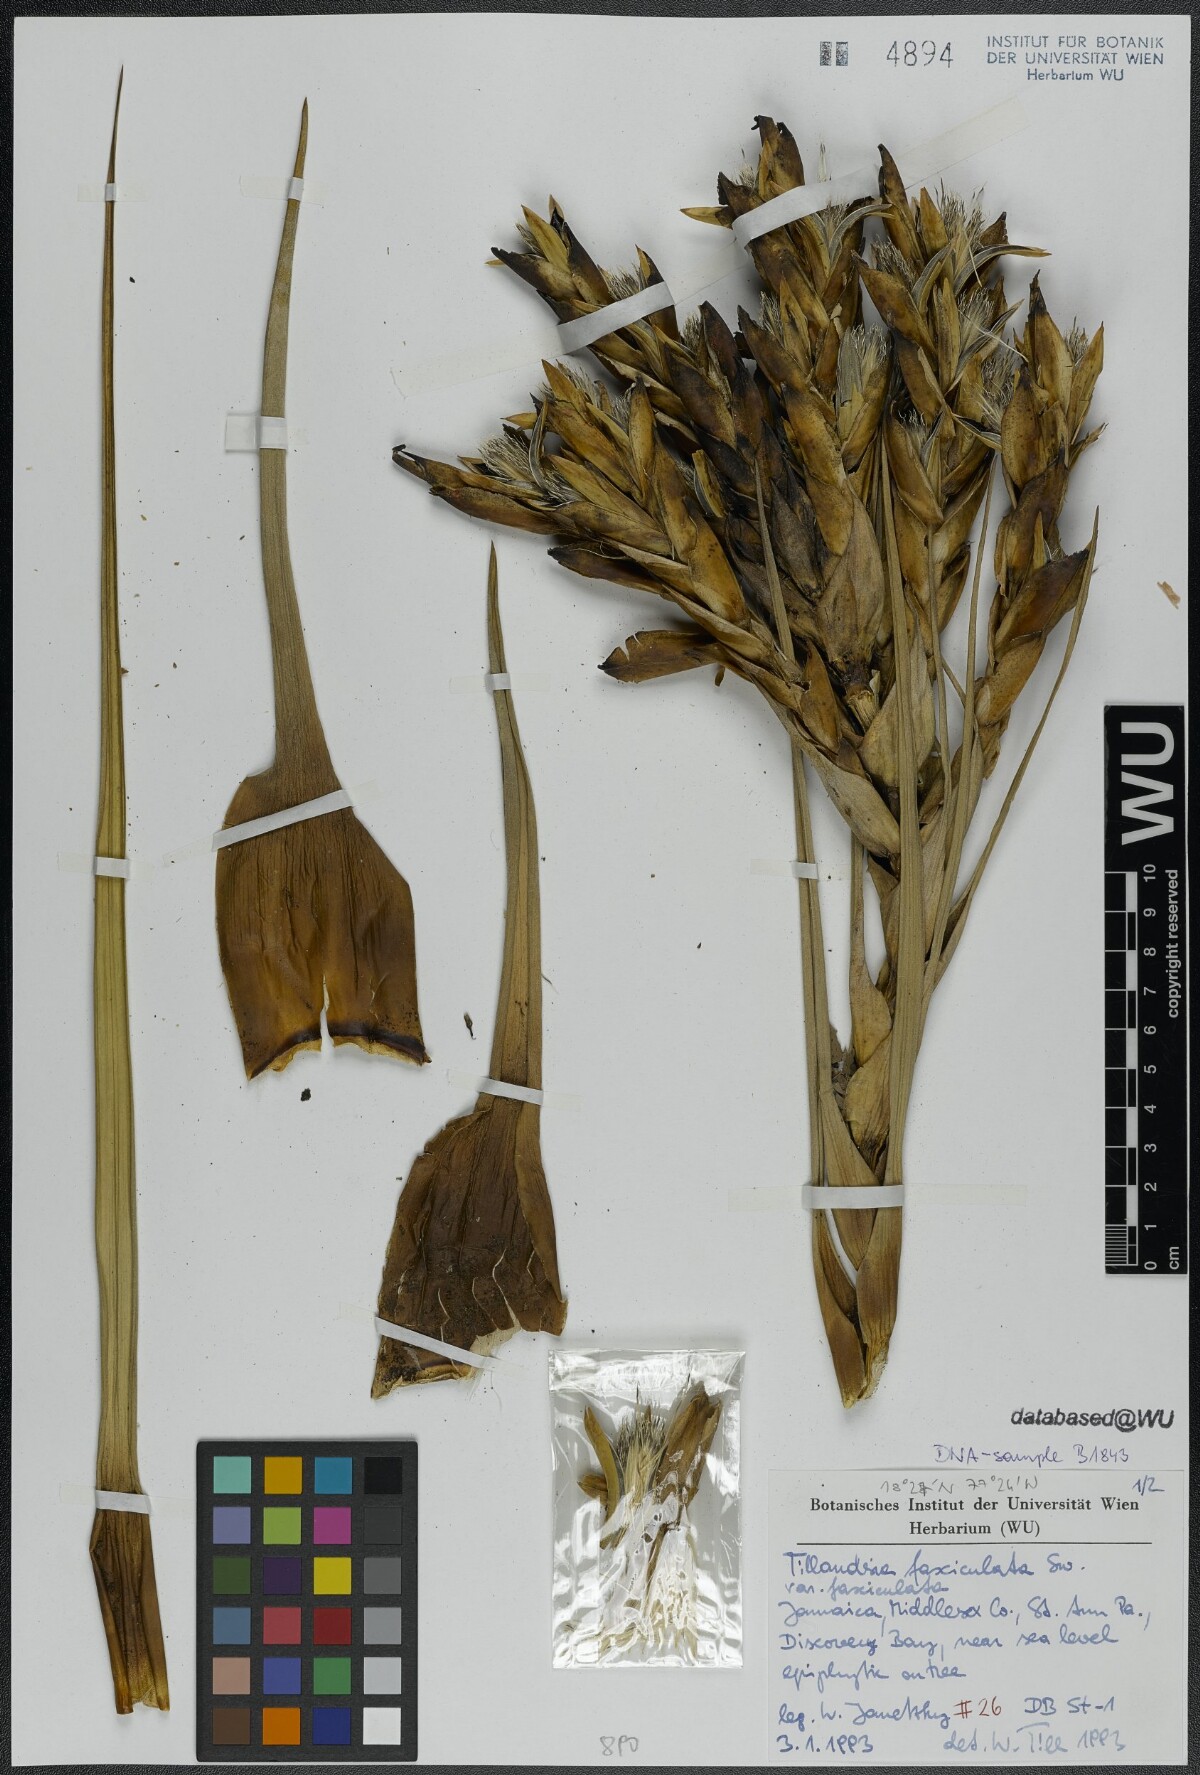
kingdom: Plantae
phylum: Tracheophyta
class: Liliopsida
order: Poales
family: Bromeliaceae
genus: Tillandsia
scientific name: Tillandsia fasciculata
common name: Giant airplant
